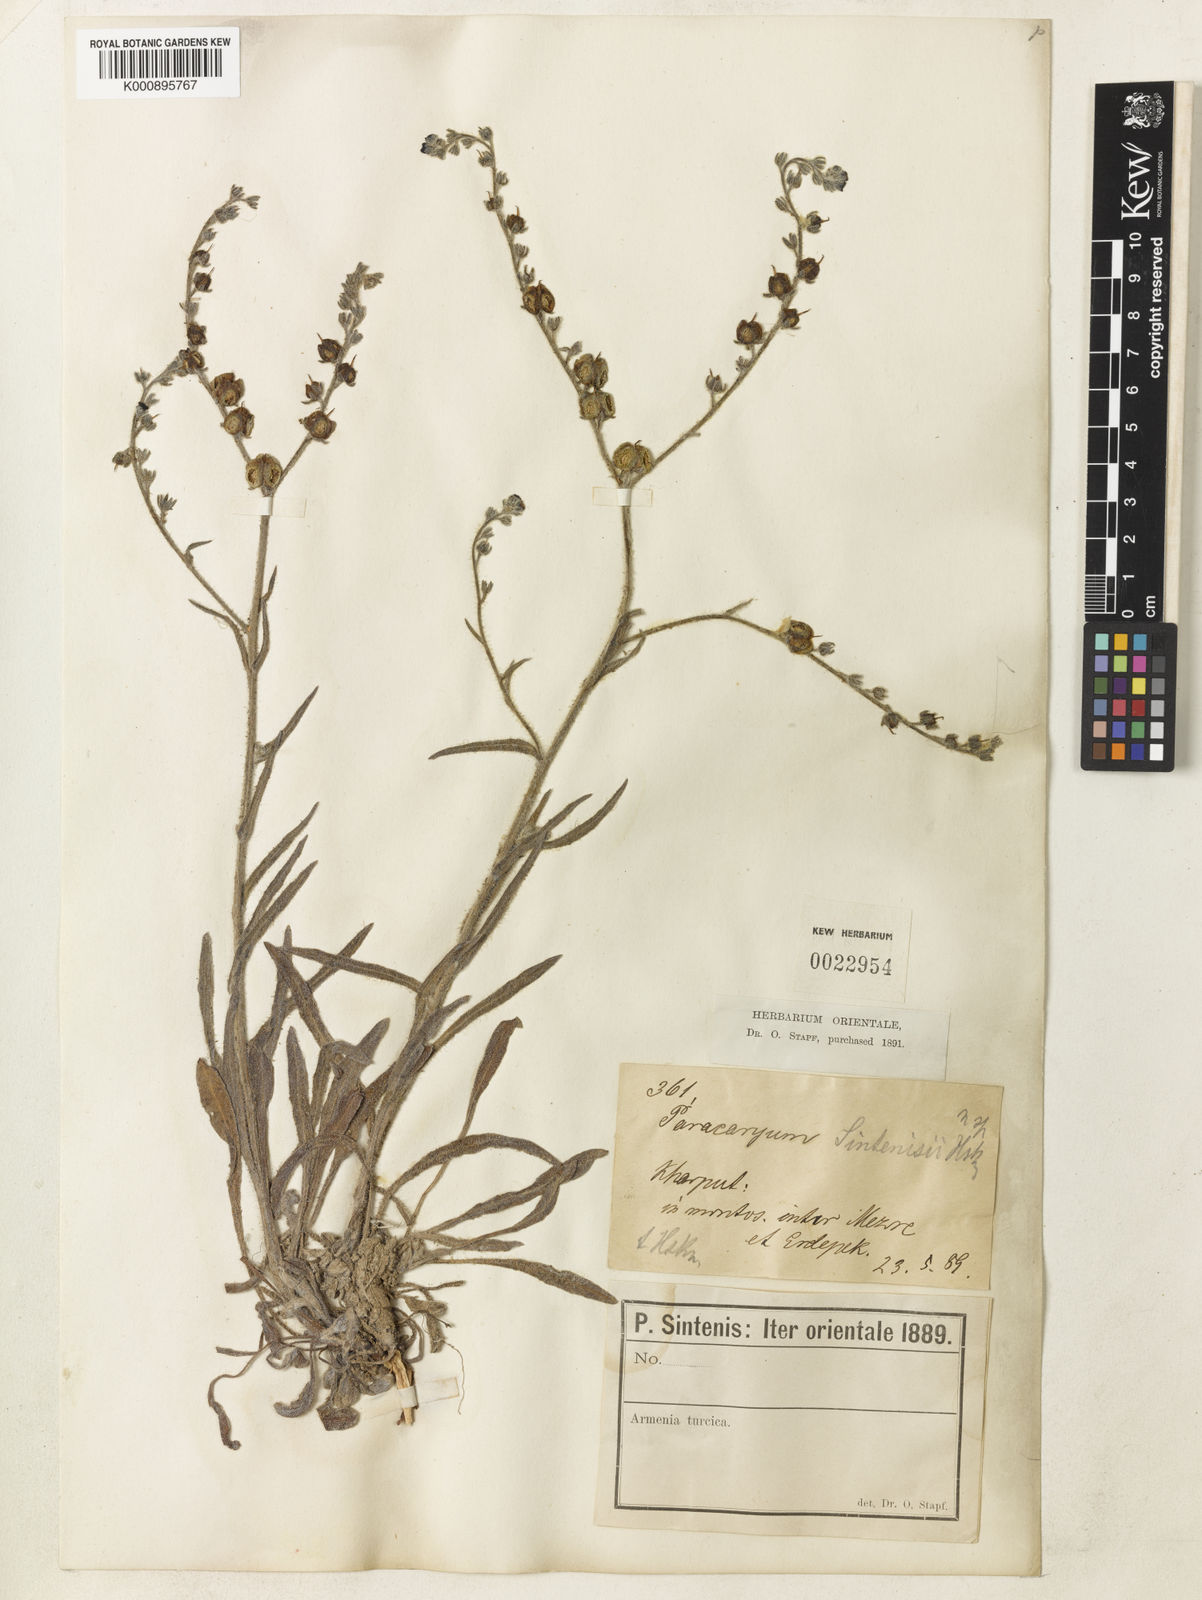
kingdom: Plantae
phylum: Tracheophyta
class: Magnoliopsida
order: Boraginales
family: Boraginaceae
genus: Paracaryum
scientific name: Paracaryum modestum
